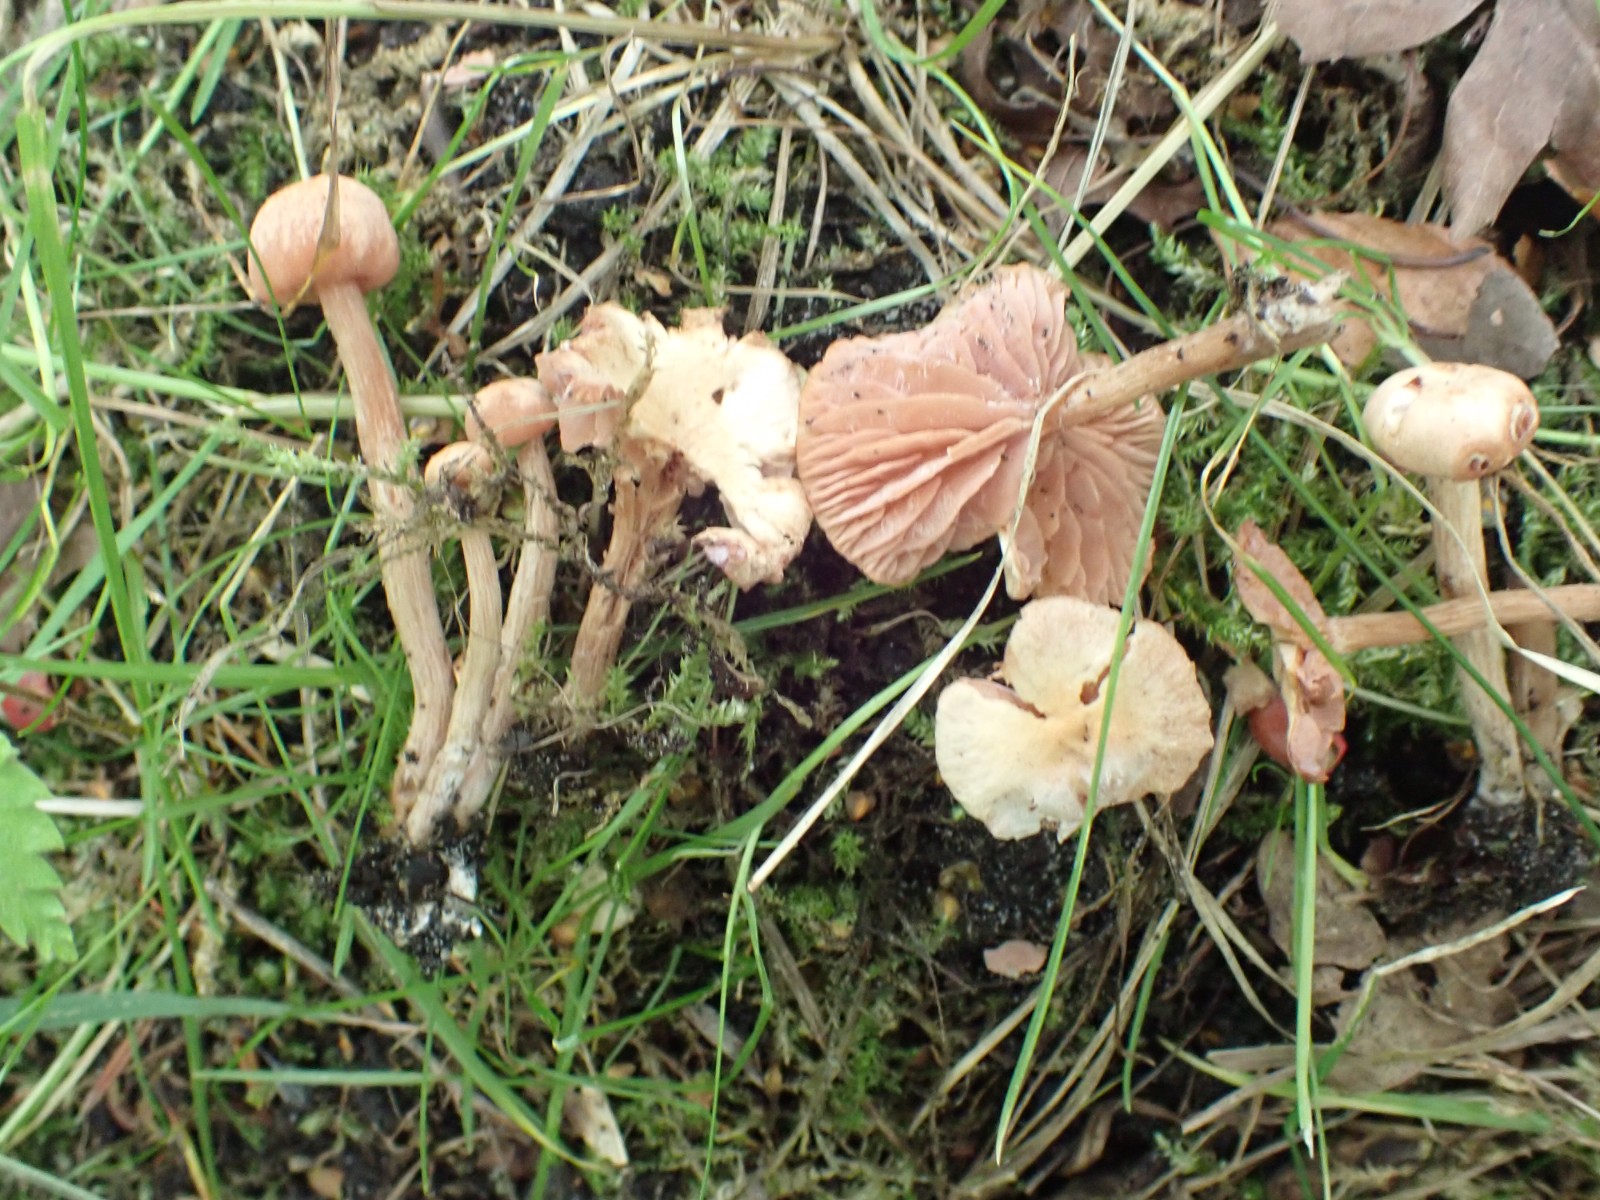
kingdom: Fungi
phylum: Basidiomycota
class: Agaricomycetes
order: Agaricales
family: Hydnangiaceae
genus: Laccaria
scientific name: Laccaria
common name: ametysthat
